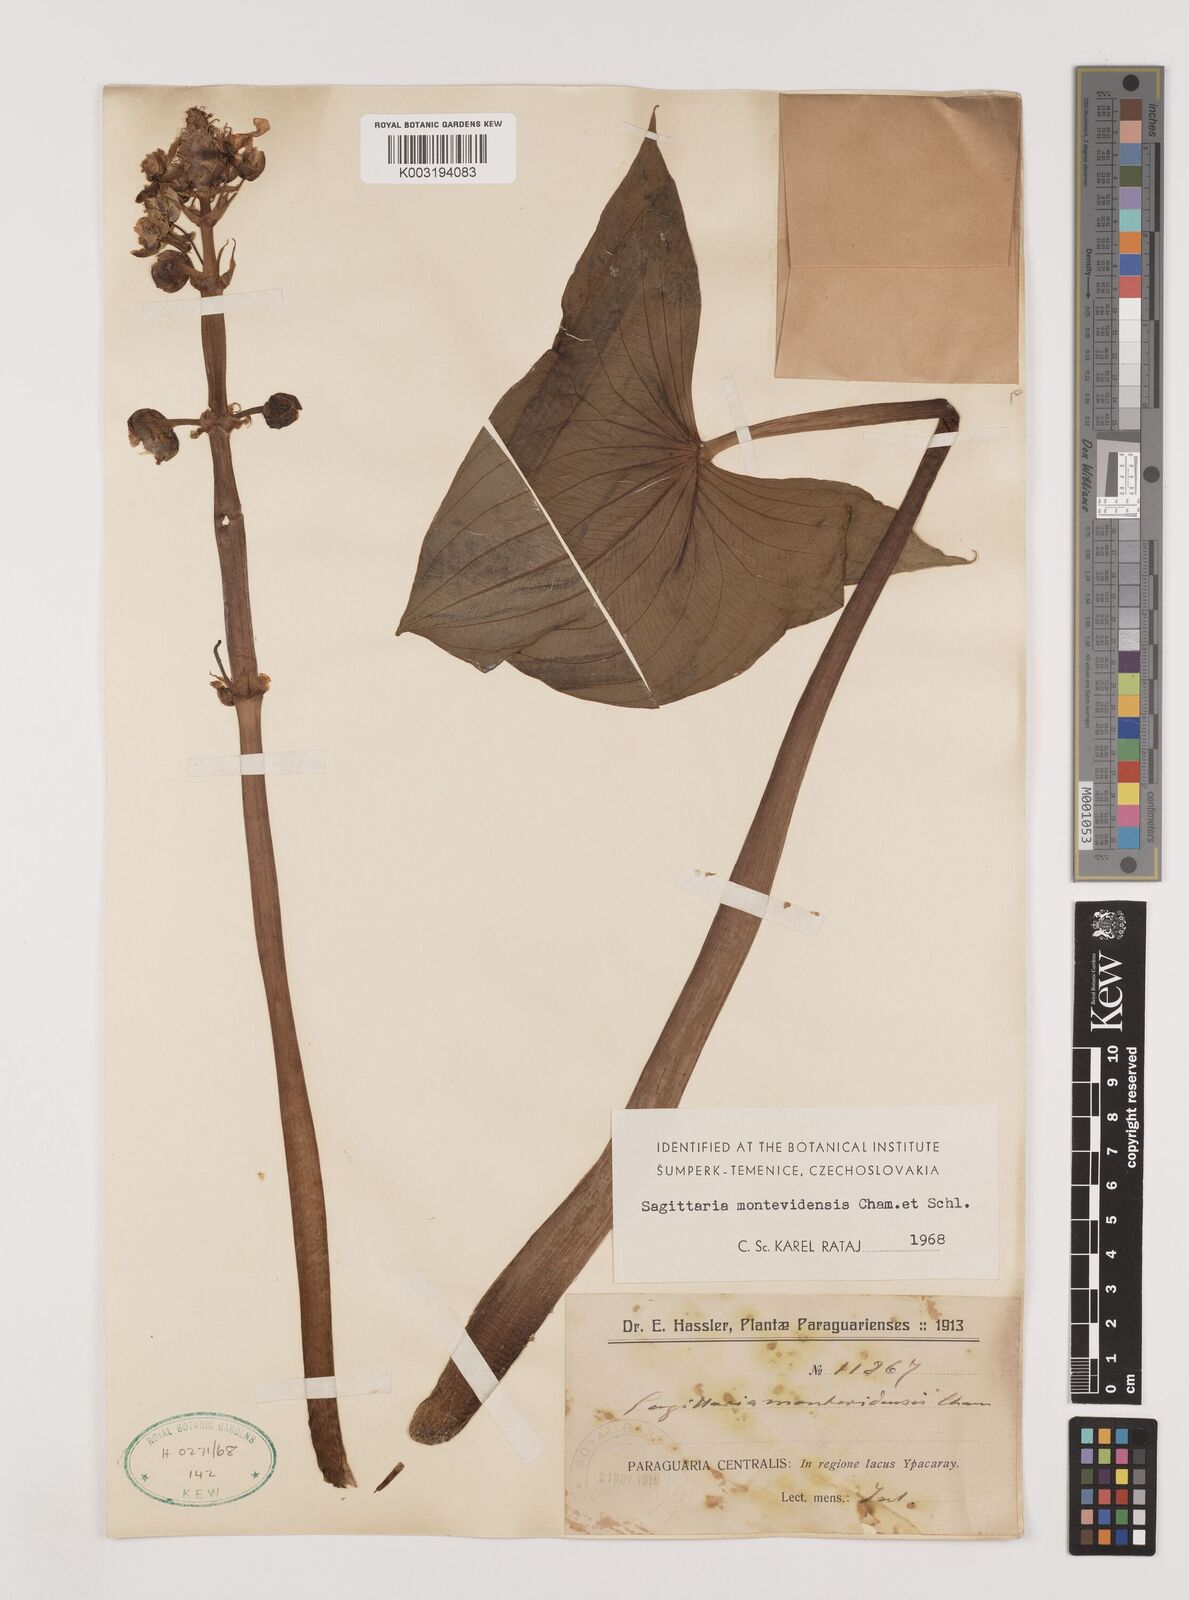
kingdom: Plantae
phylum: Tracheophyta
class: Liliopsida
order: Alismatales
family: Alismataceae
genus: Sagittaria
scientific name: Sagittaria montevidensis
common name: Giant arrowhead
